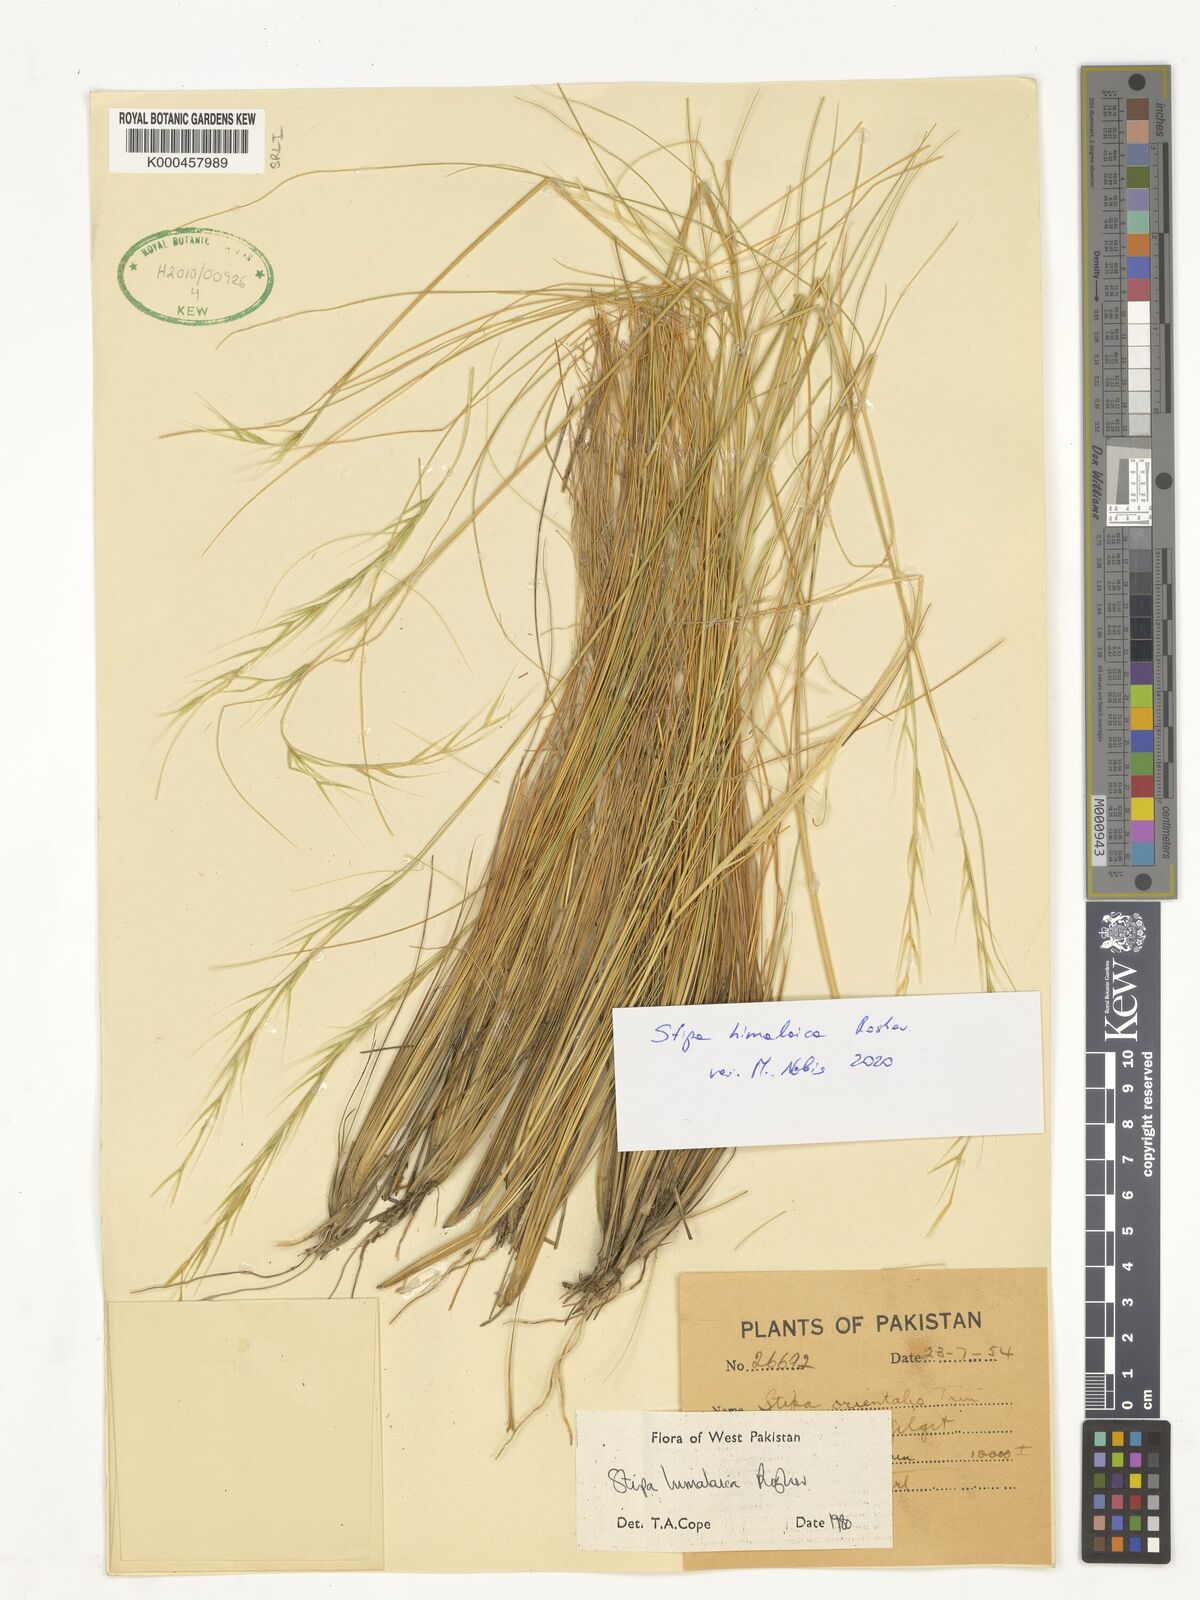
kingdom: Plantae
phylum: Tracheophyta
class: Liliopsida
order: Poales
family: Poaceae
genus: Stipa
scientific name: Stipa himalaica
